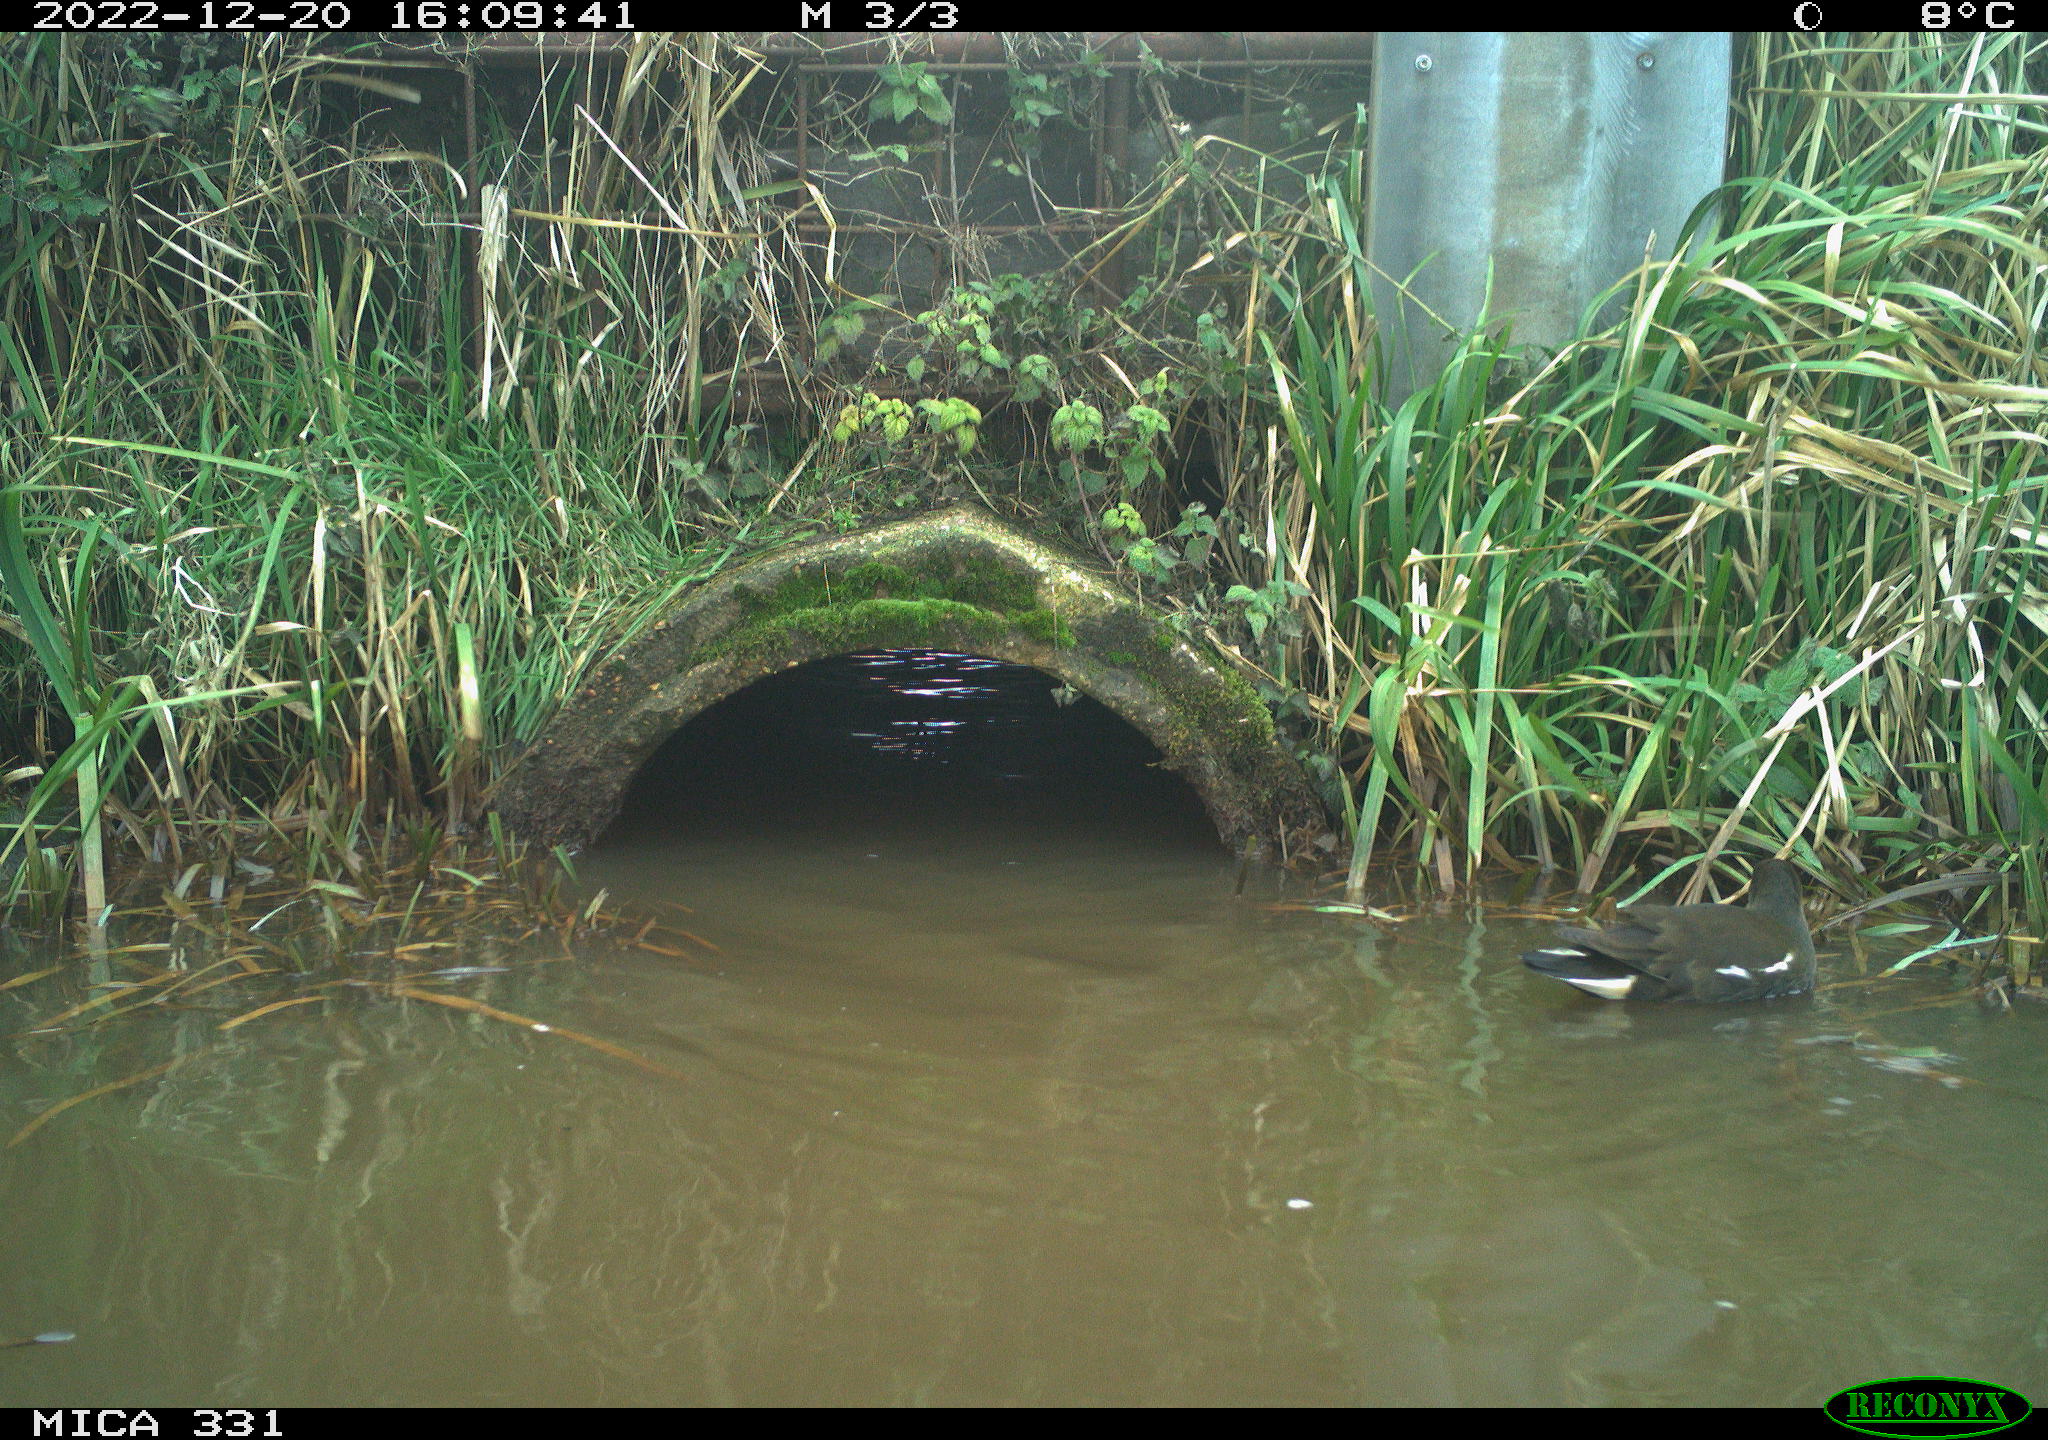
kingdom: Animalia
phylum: Chordata
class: Aves
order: Gruiformes
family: Rallidae
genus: Gallinula
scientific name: Gallinula chloropus
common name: Common moorhen
